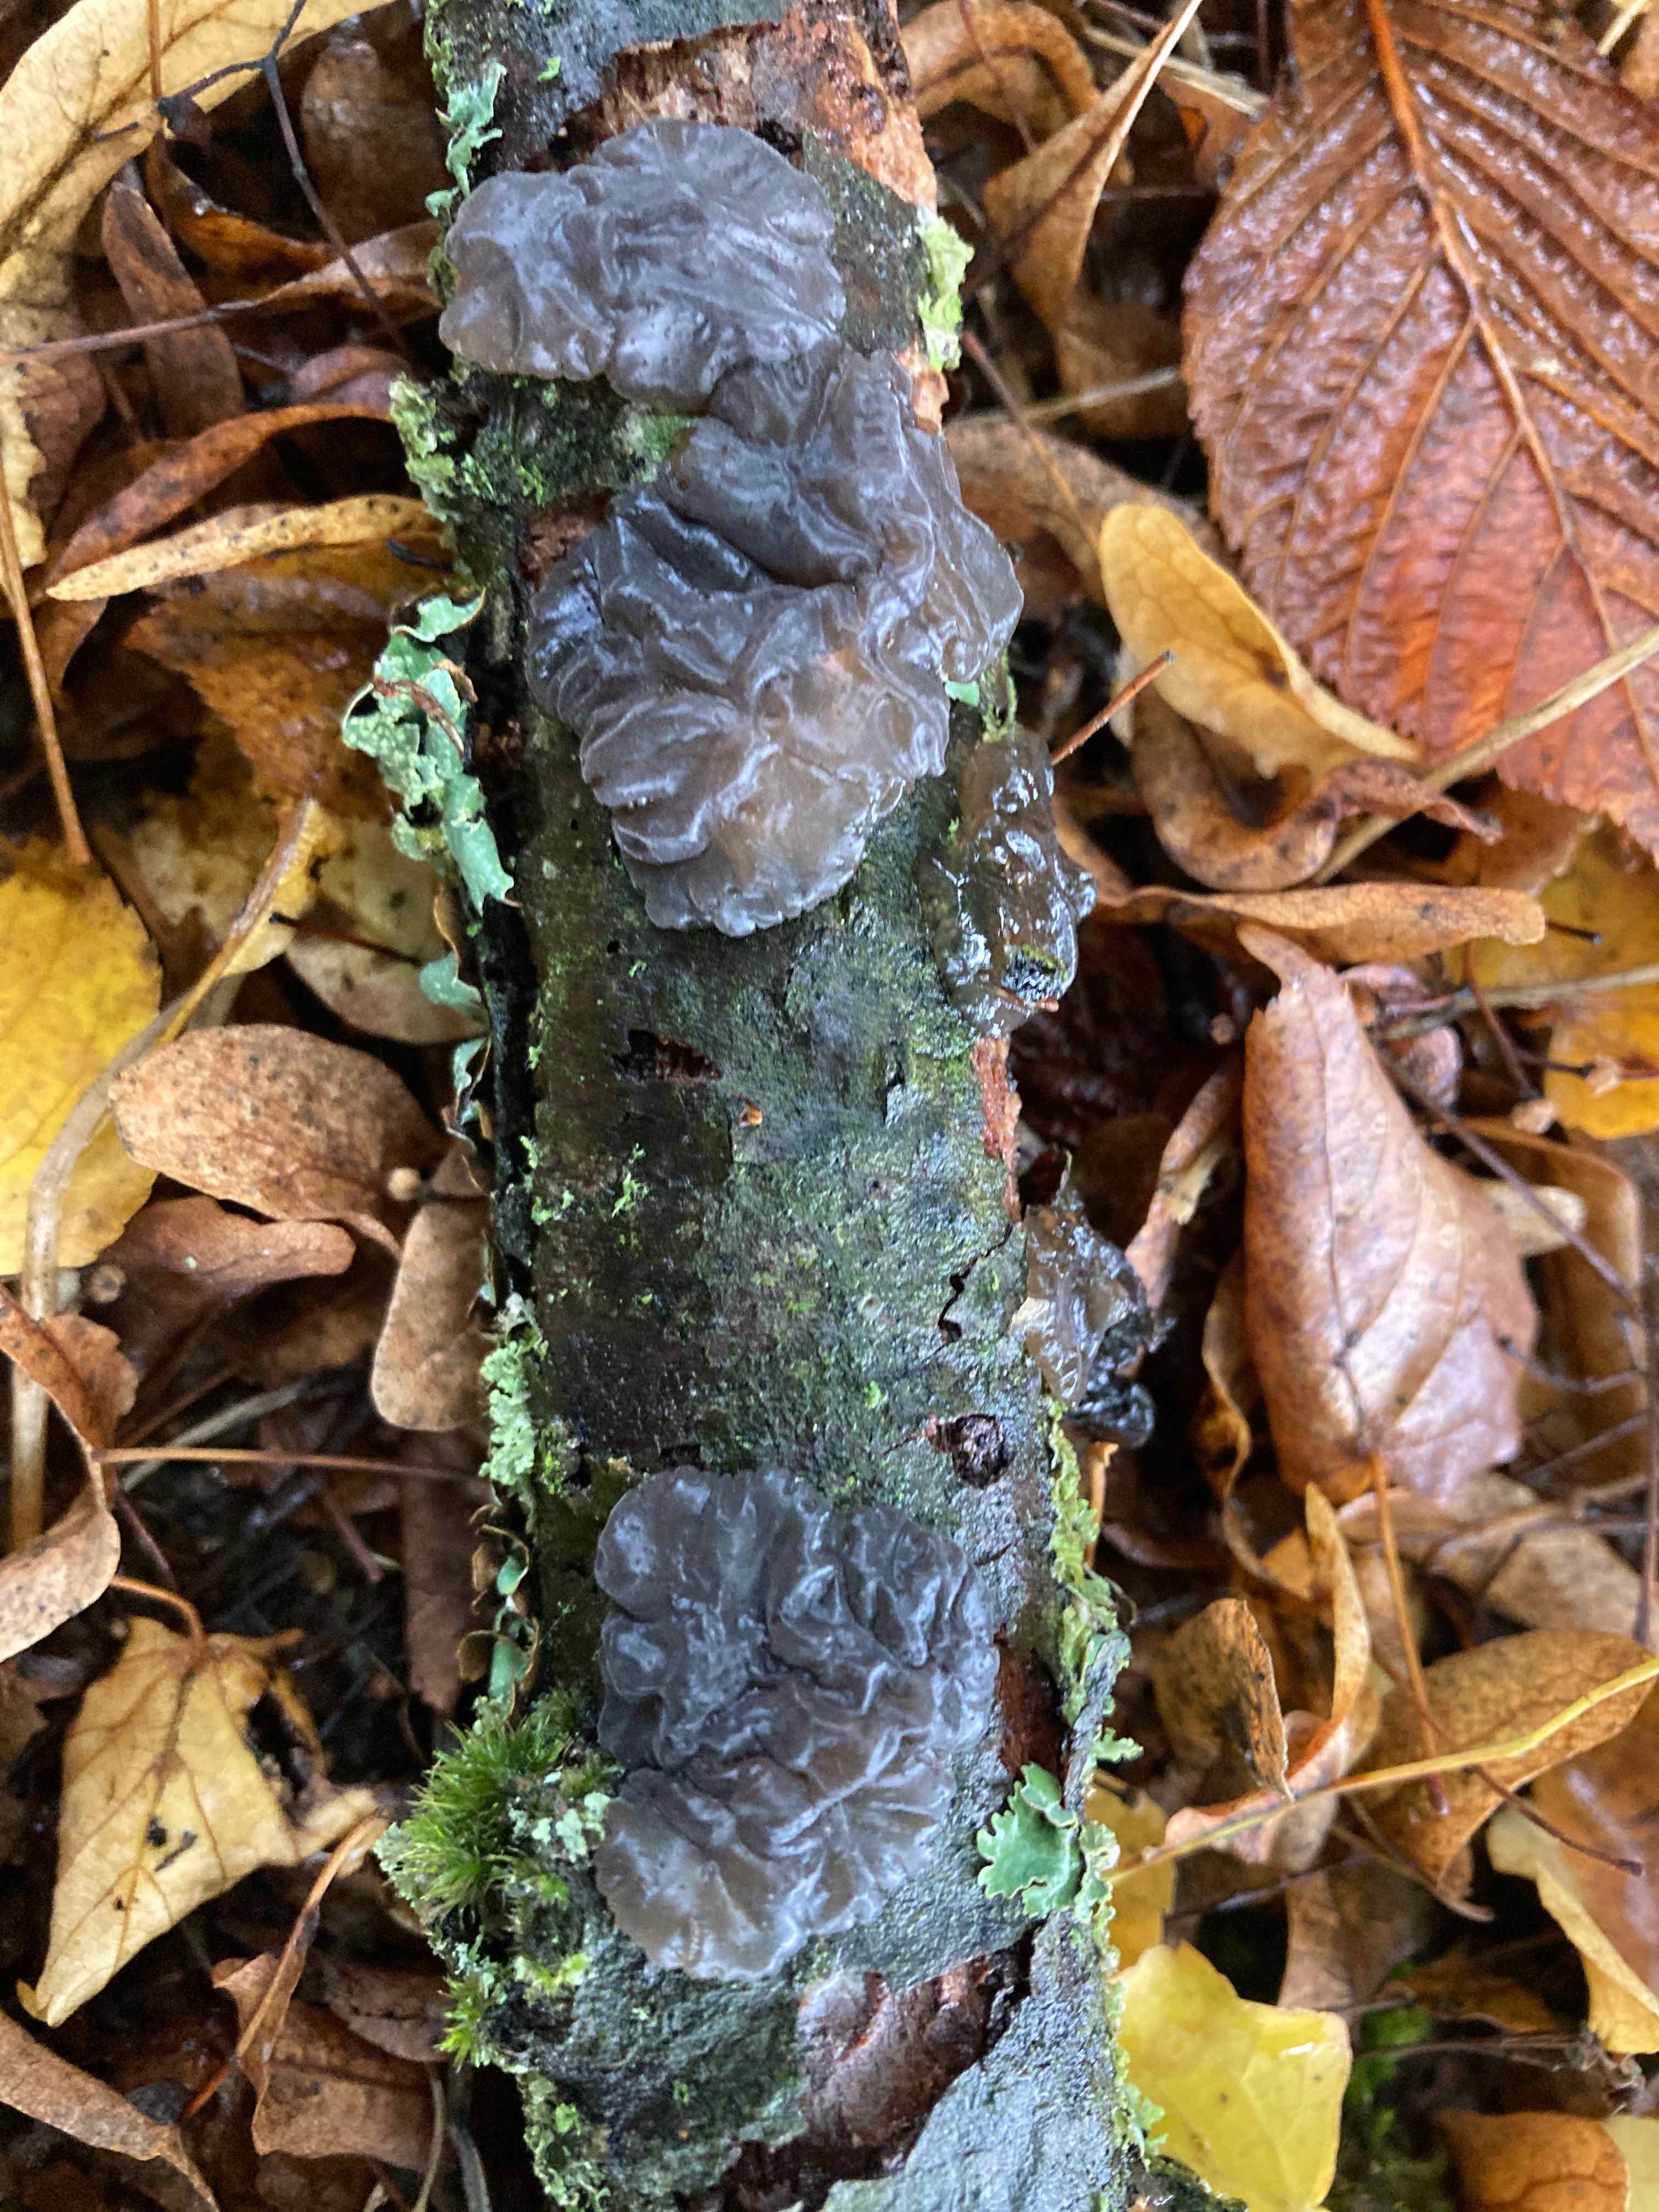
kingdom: Fungi
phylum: Basidiomycota
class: Agaricomycetes
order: Auriculariales
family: Auriculariaceae
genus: Exidia
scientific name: Exidia nigricans
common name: almindelig bævretop
